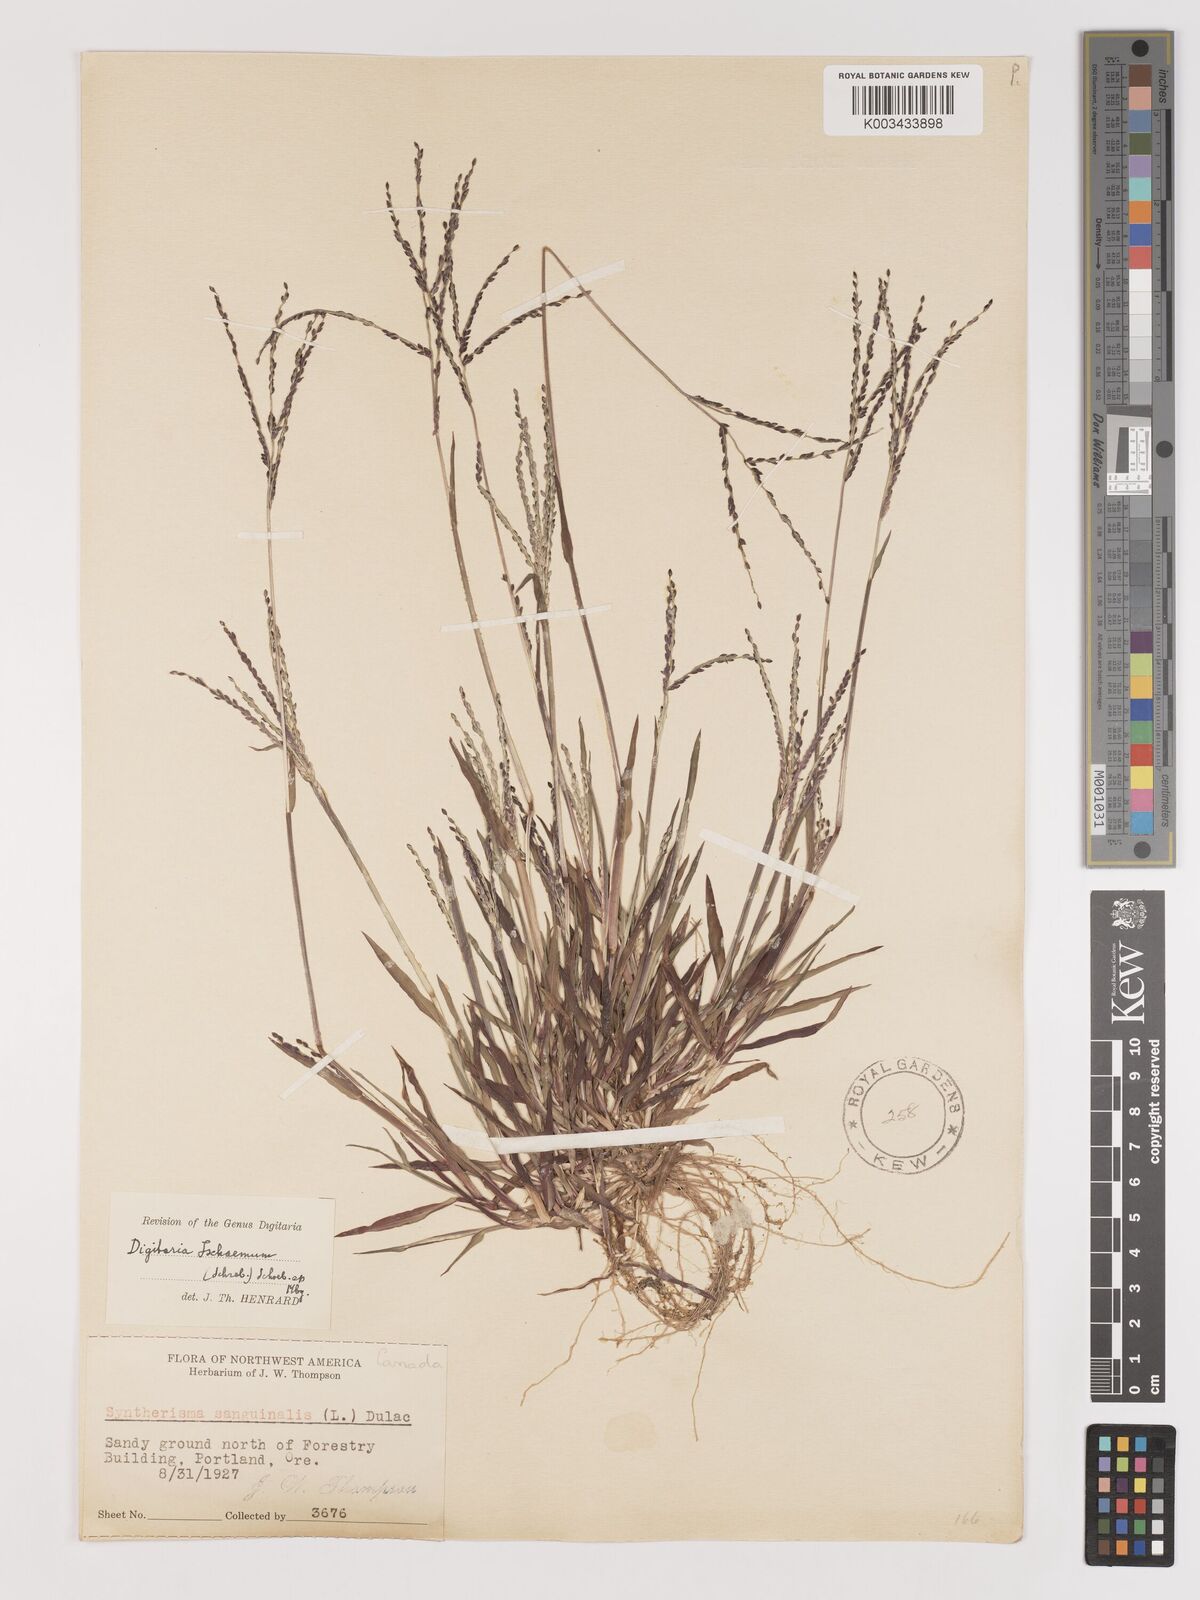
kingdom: Plantae
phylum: Tracheophyta
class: Liliopsida
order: Poales
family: Poaceae
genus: Digitaria
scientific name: Digitaria ischaemum
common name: Smooth crabgrass
